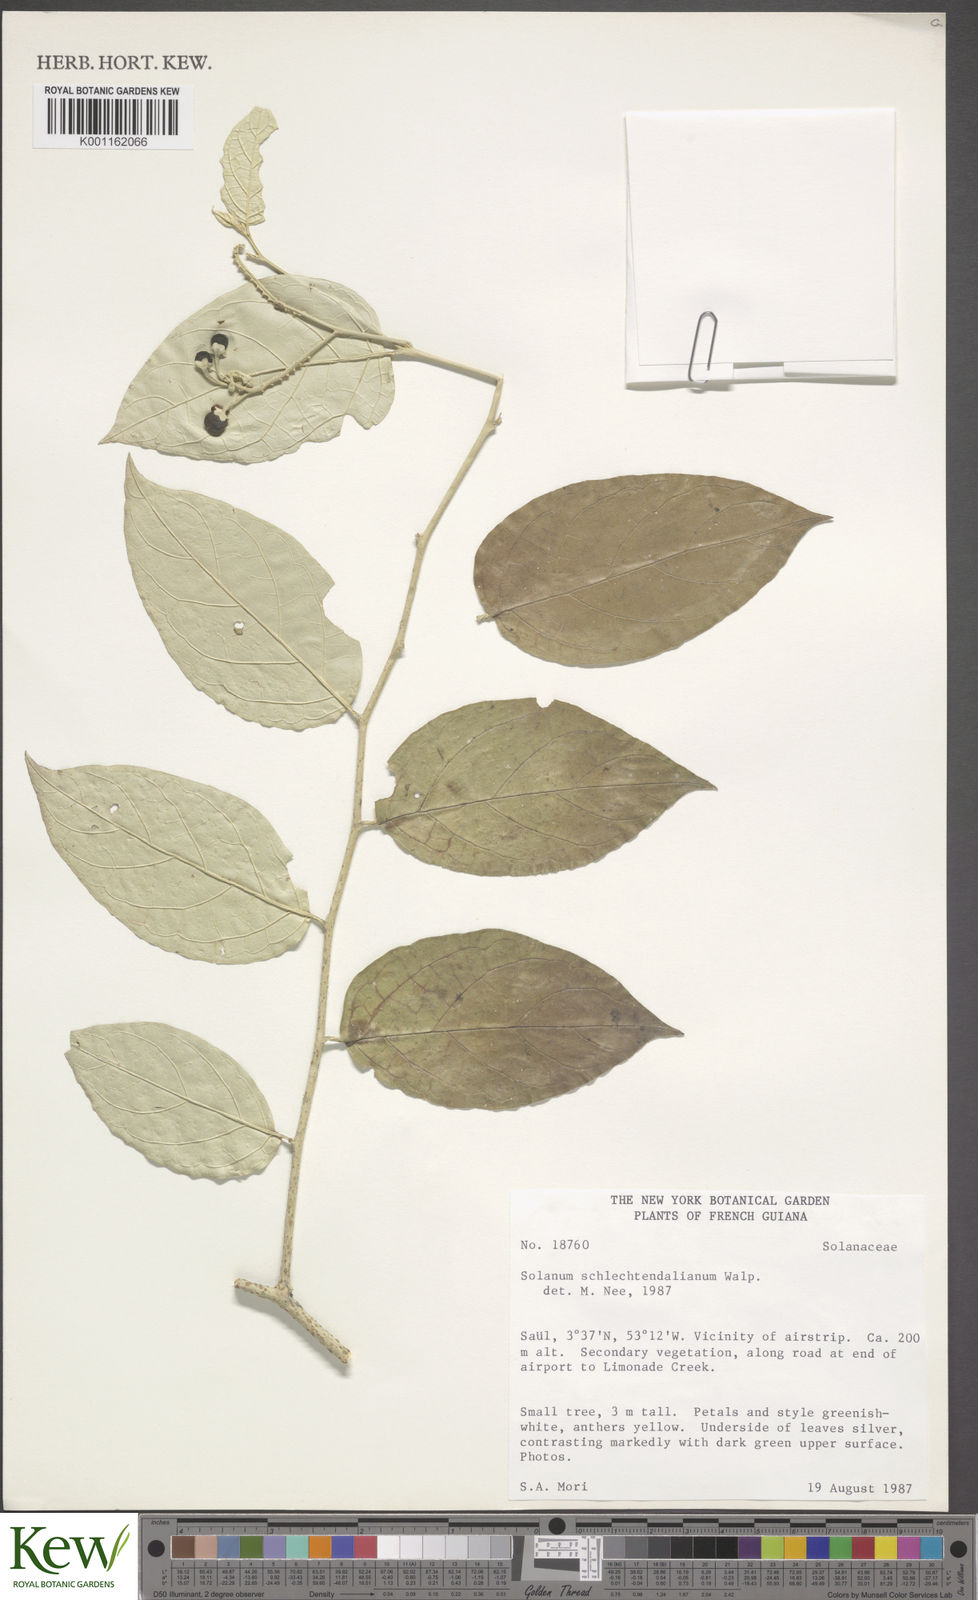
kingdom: Plantae
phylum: Tracheophyta
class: Magnoliopsida
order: Solanales
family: Solanaceae
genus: Solanum
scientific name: Solanum schlechtendalianum
